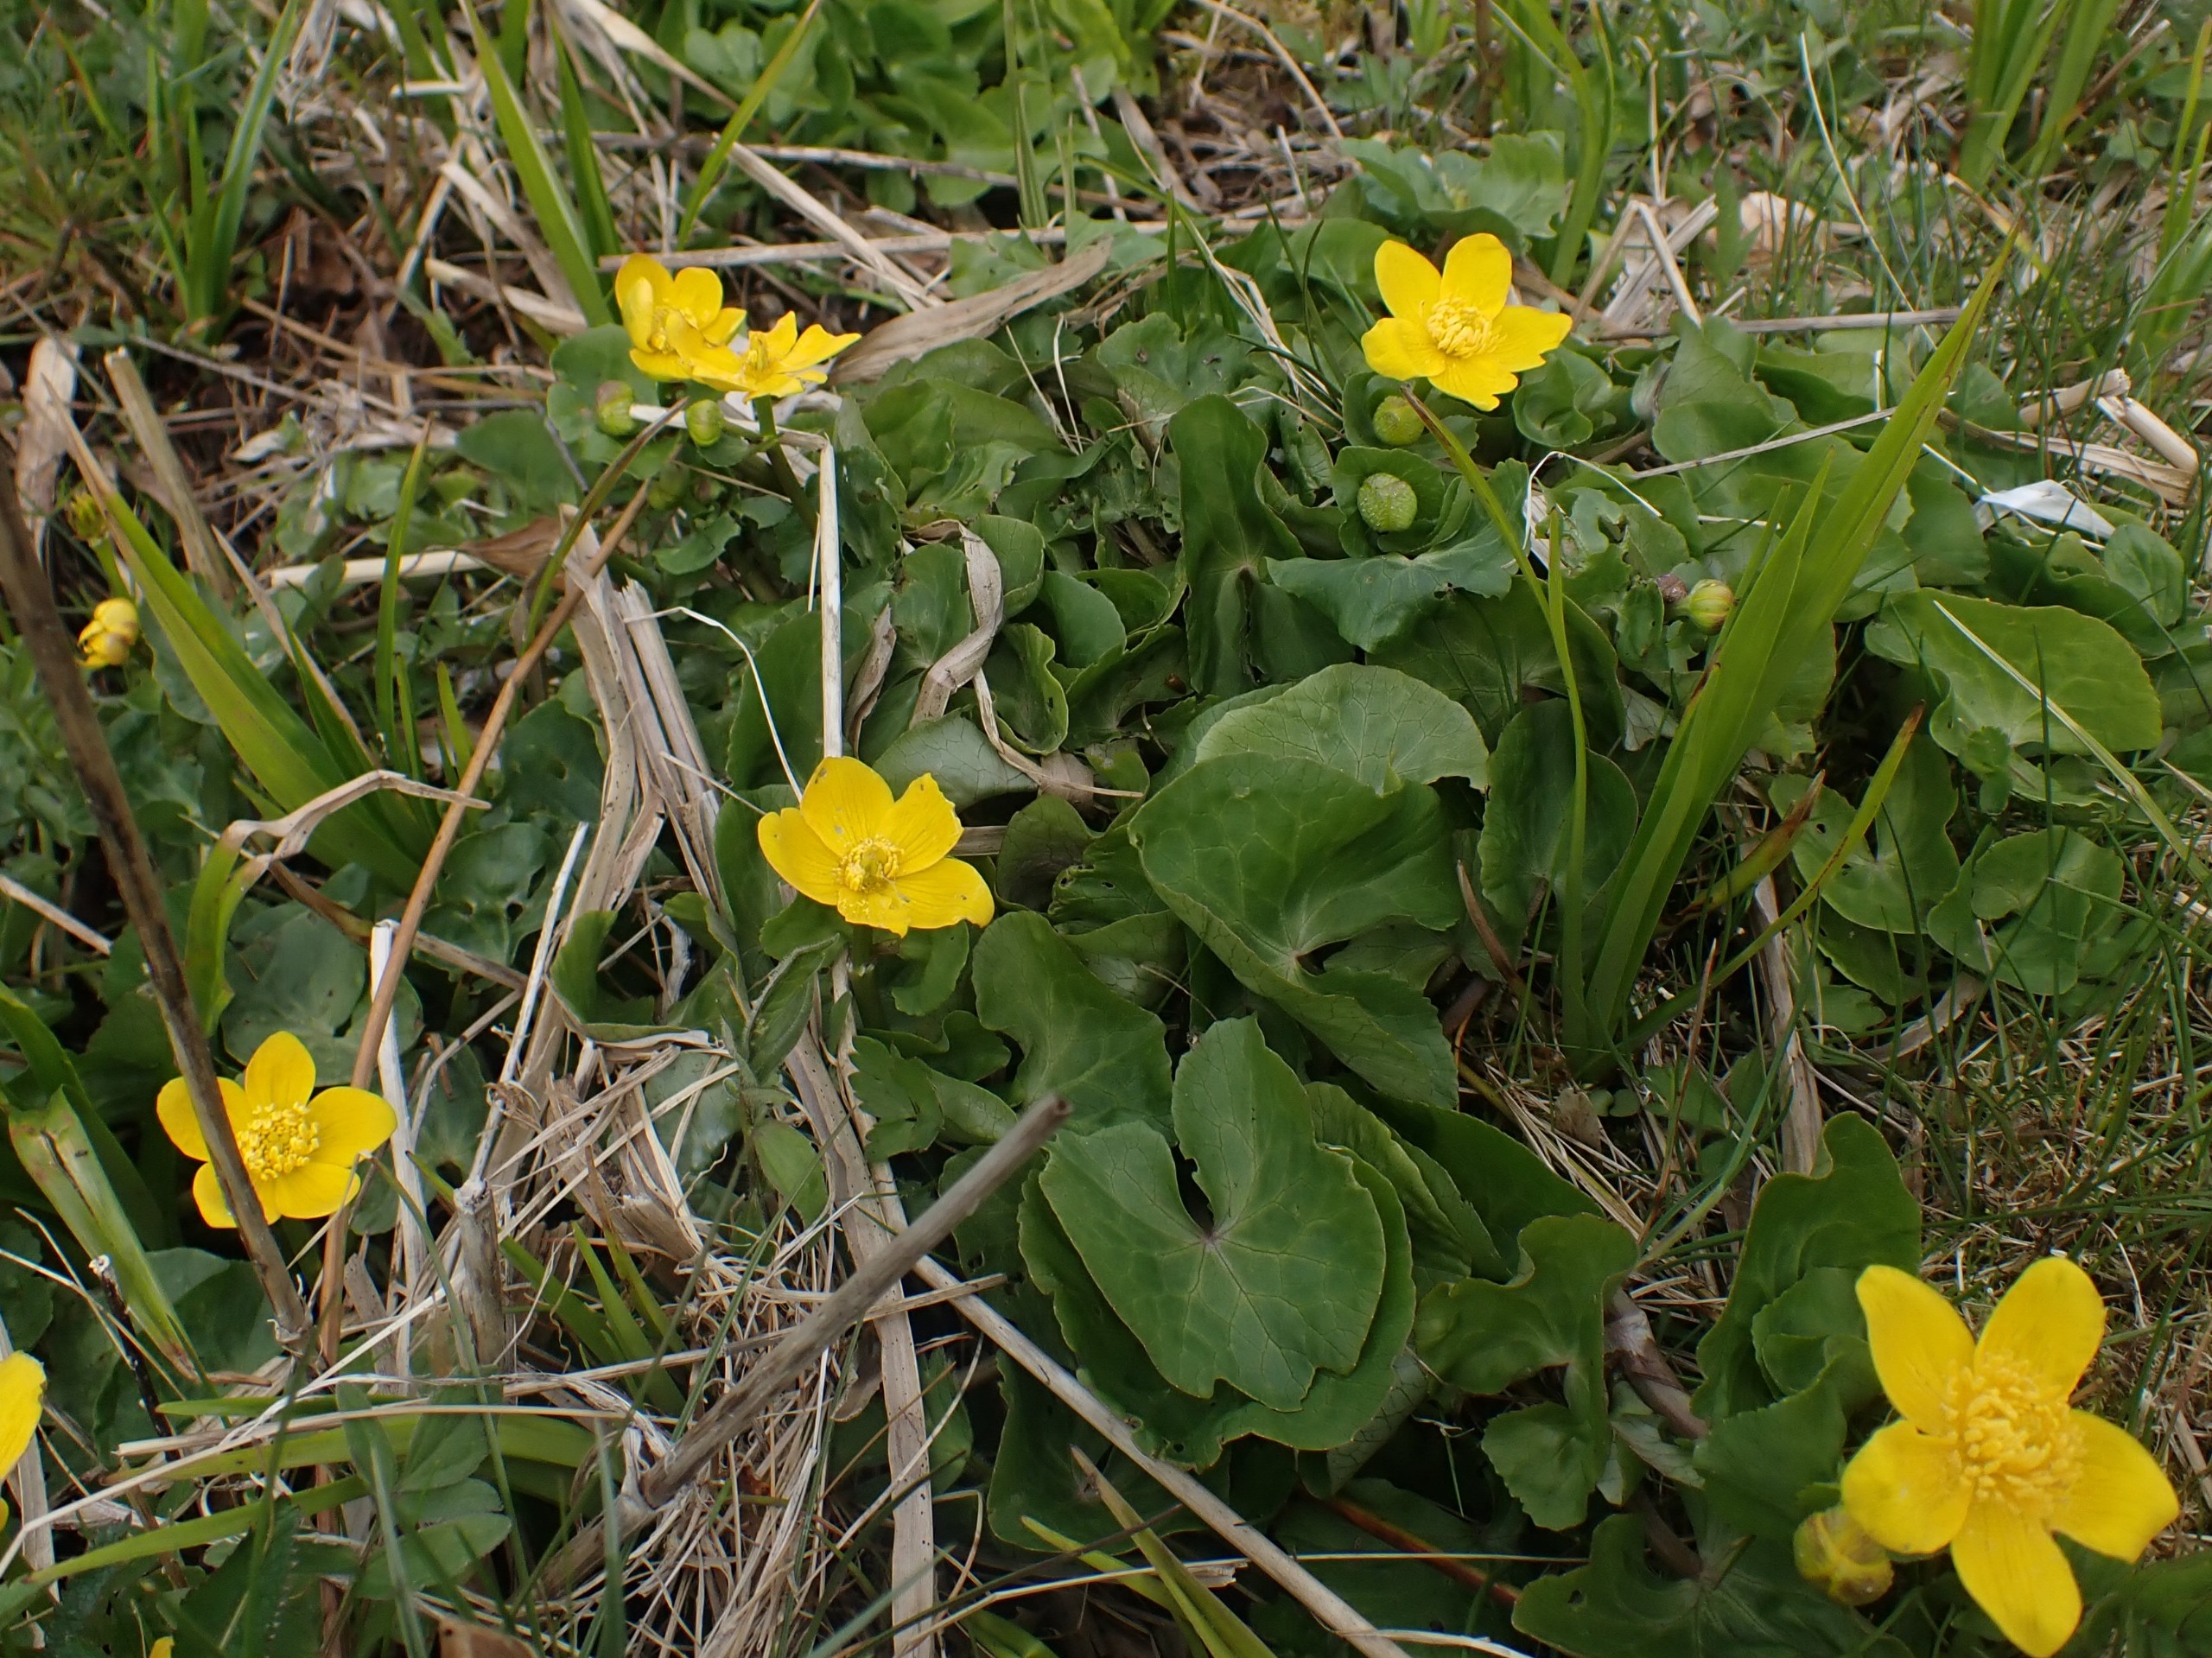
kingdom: Plantae
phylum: Tracheophyta
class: Magnoliopsida
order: Ranunculales
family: Ranunculaceae
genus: Caltha
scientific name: Caltha palustris
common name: Eng-kabbeleje
